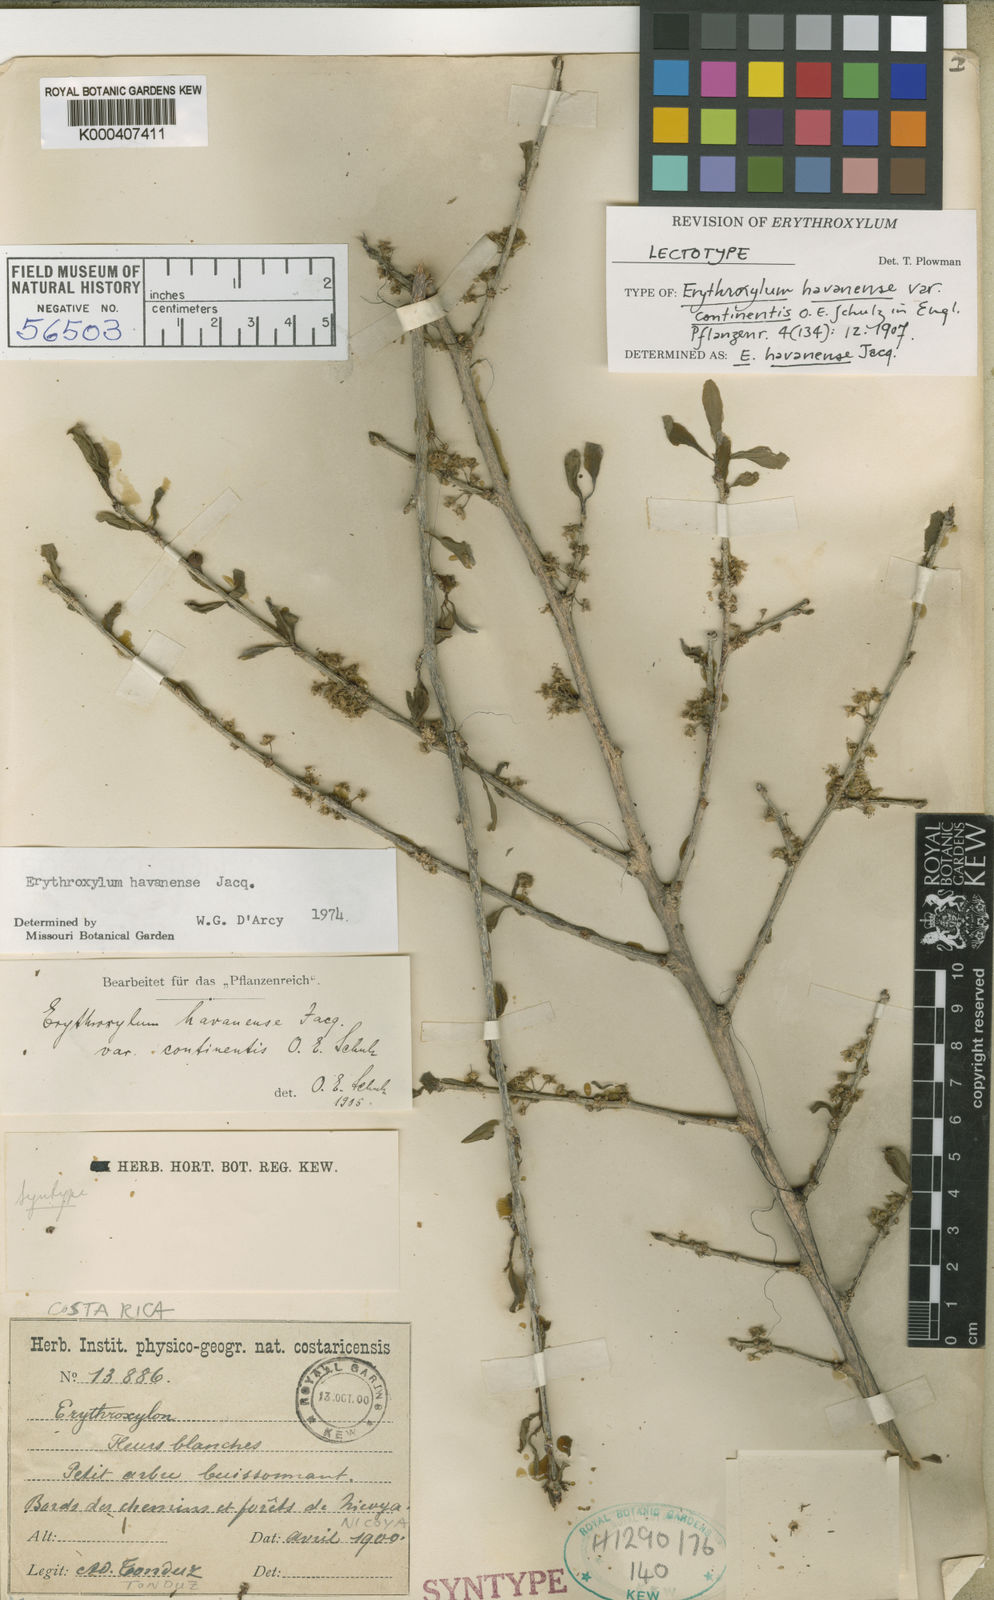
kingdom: Plantae
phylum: Tracheophyta
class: Magnoliopsida
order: Malpighiales
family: Erythroxylaceae
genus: Erythroxylum
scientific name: Erythroxylum havanense
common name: Bracelet
